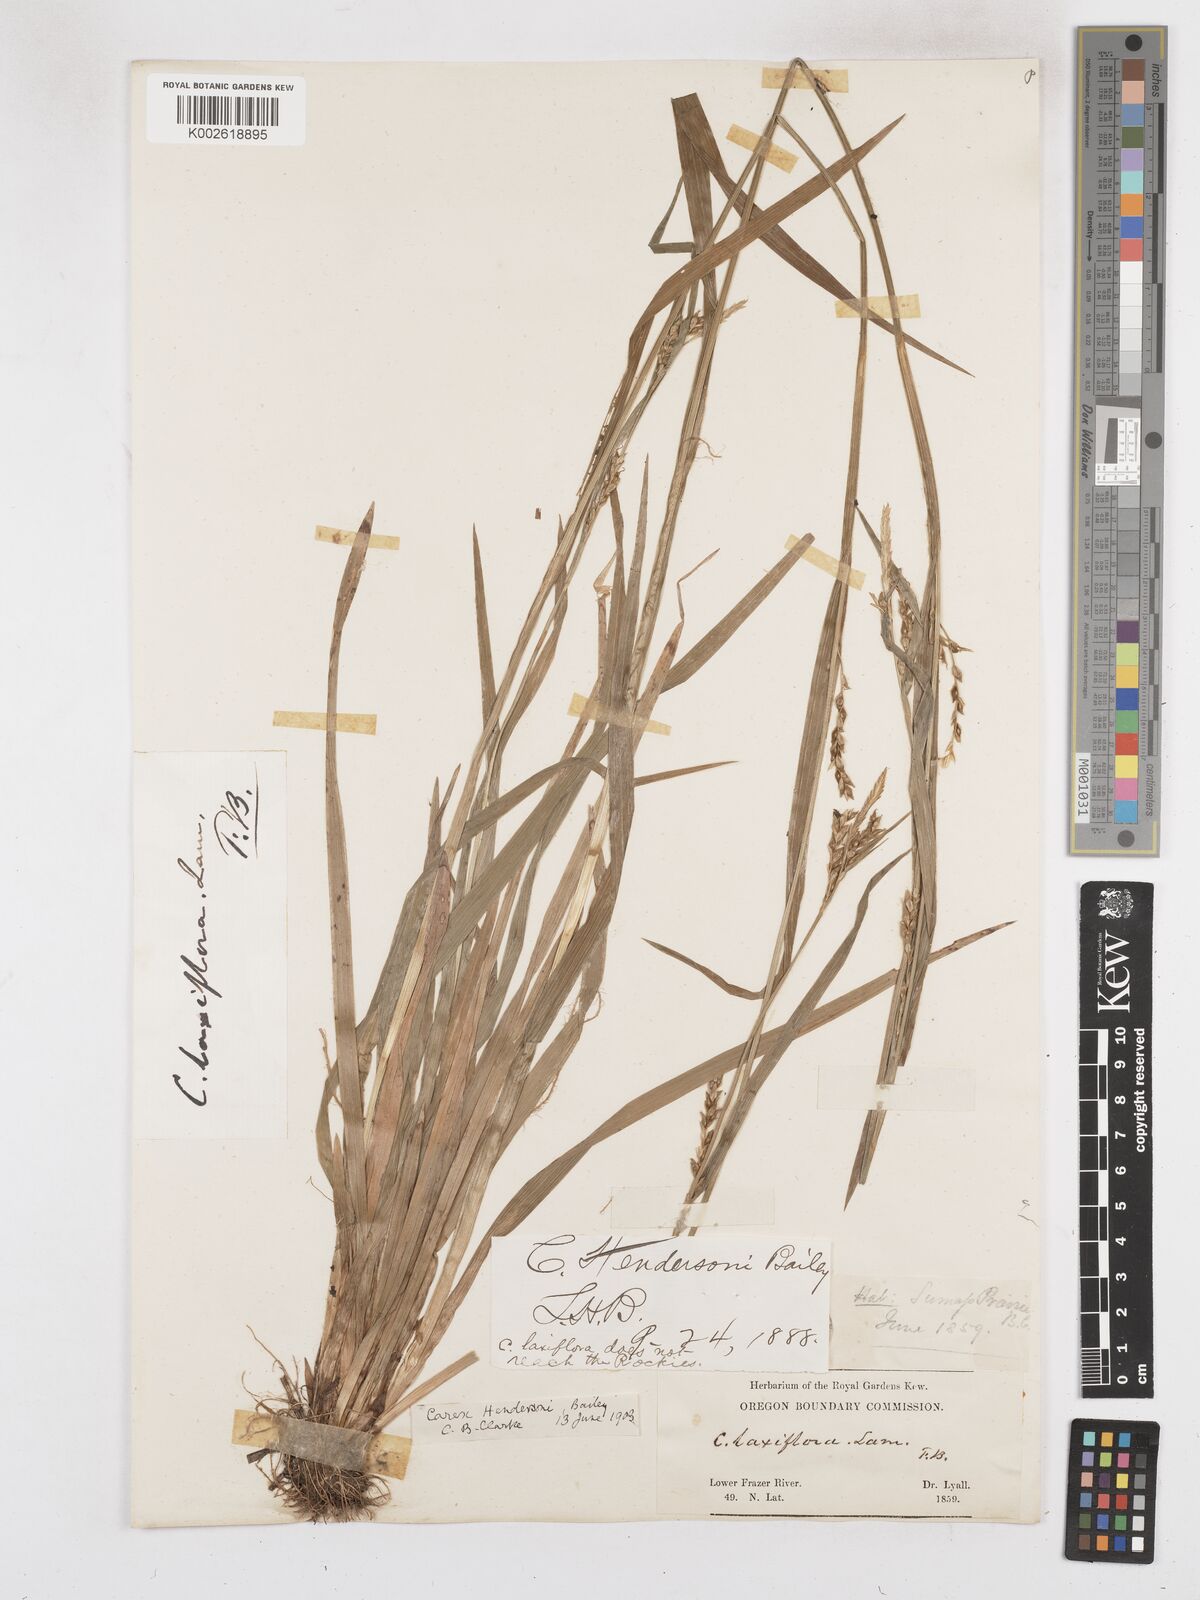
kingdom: Plantae
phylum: Tracheophyta
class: Liliopsida
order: Poales
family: Cyperaceae
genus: Carex
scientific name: Carex hendersonii
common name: Henderson's sedge
